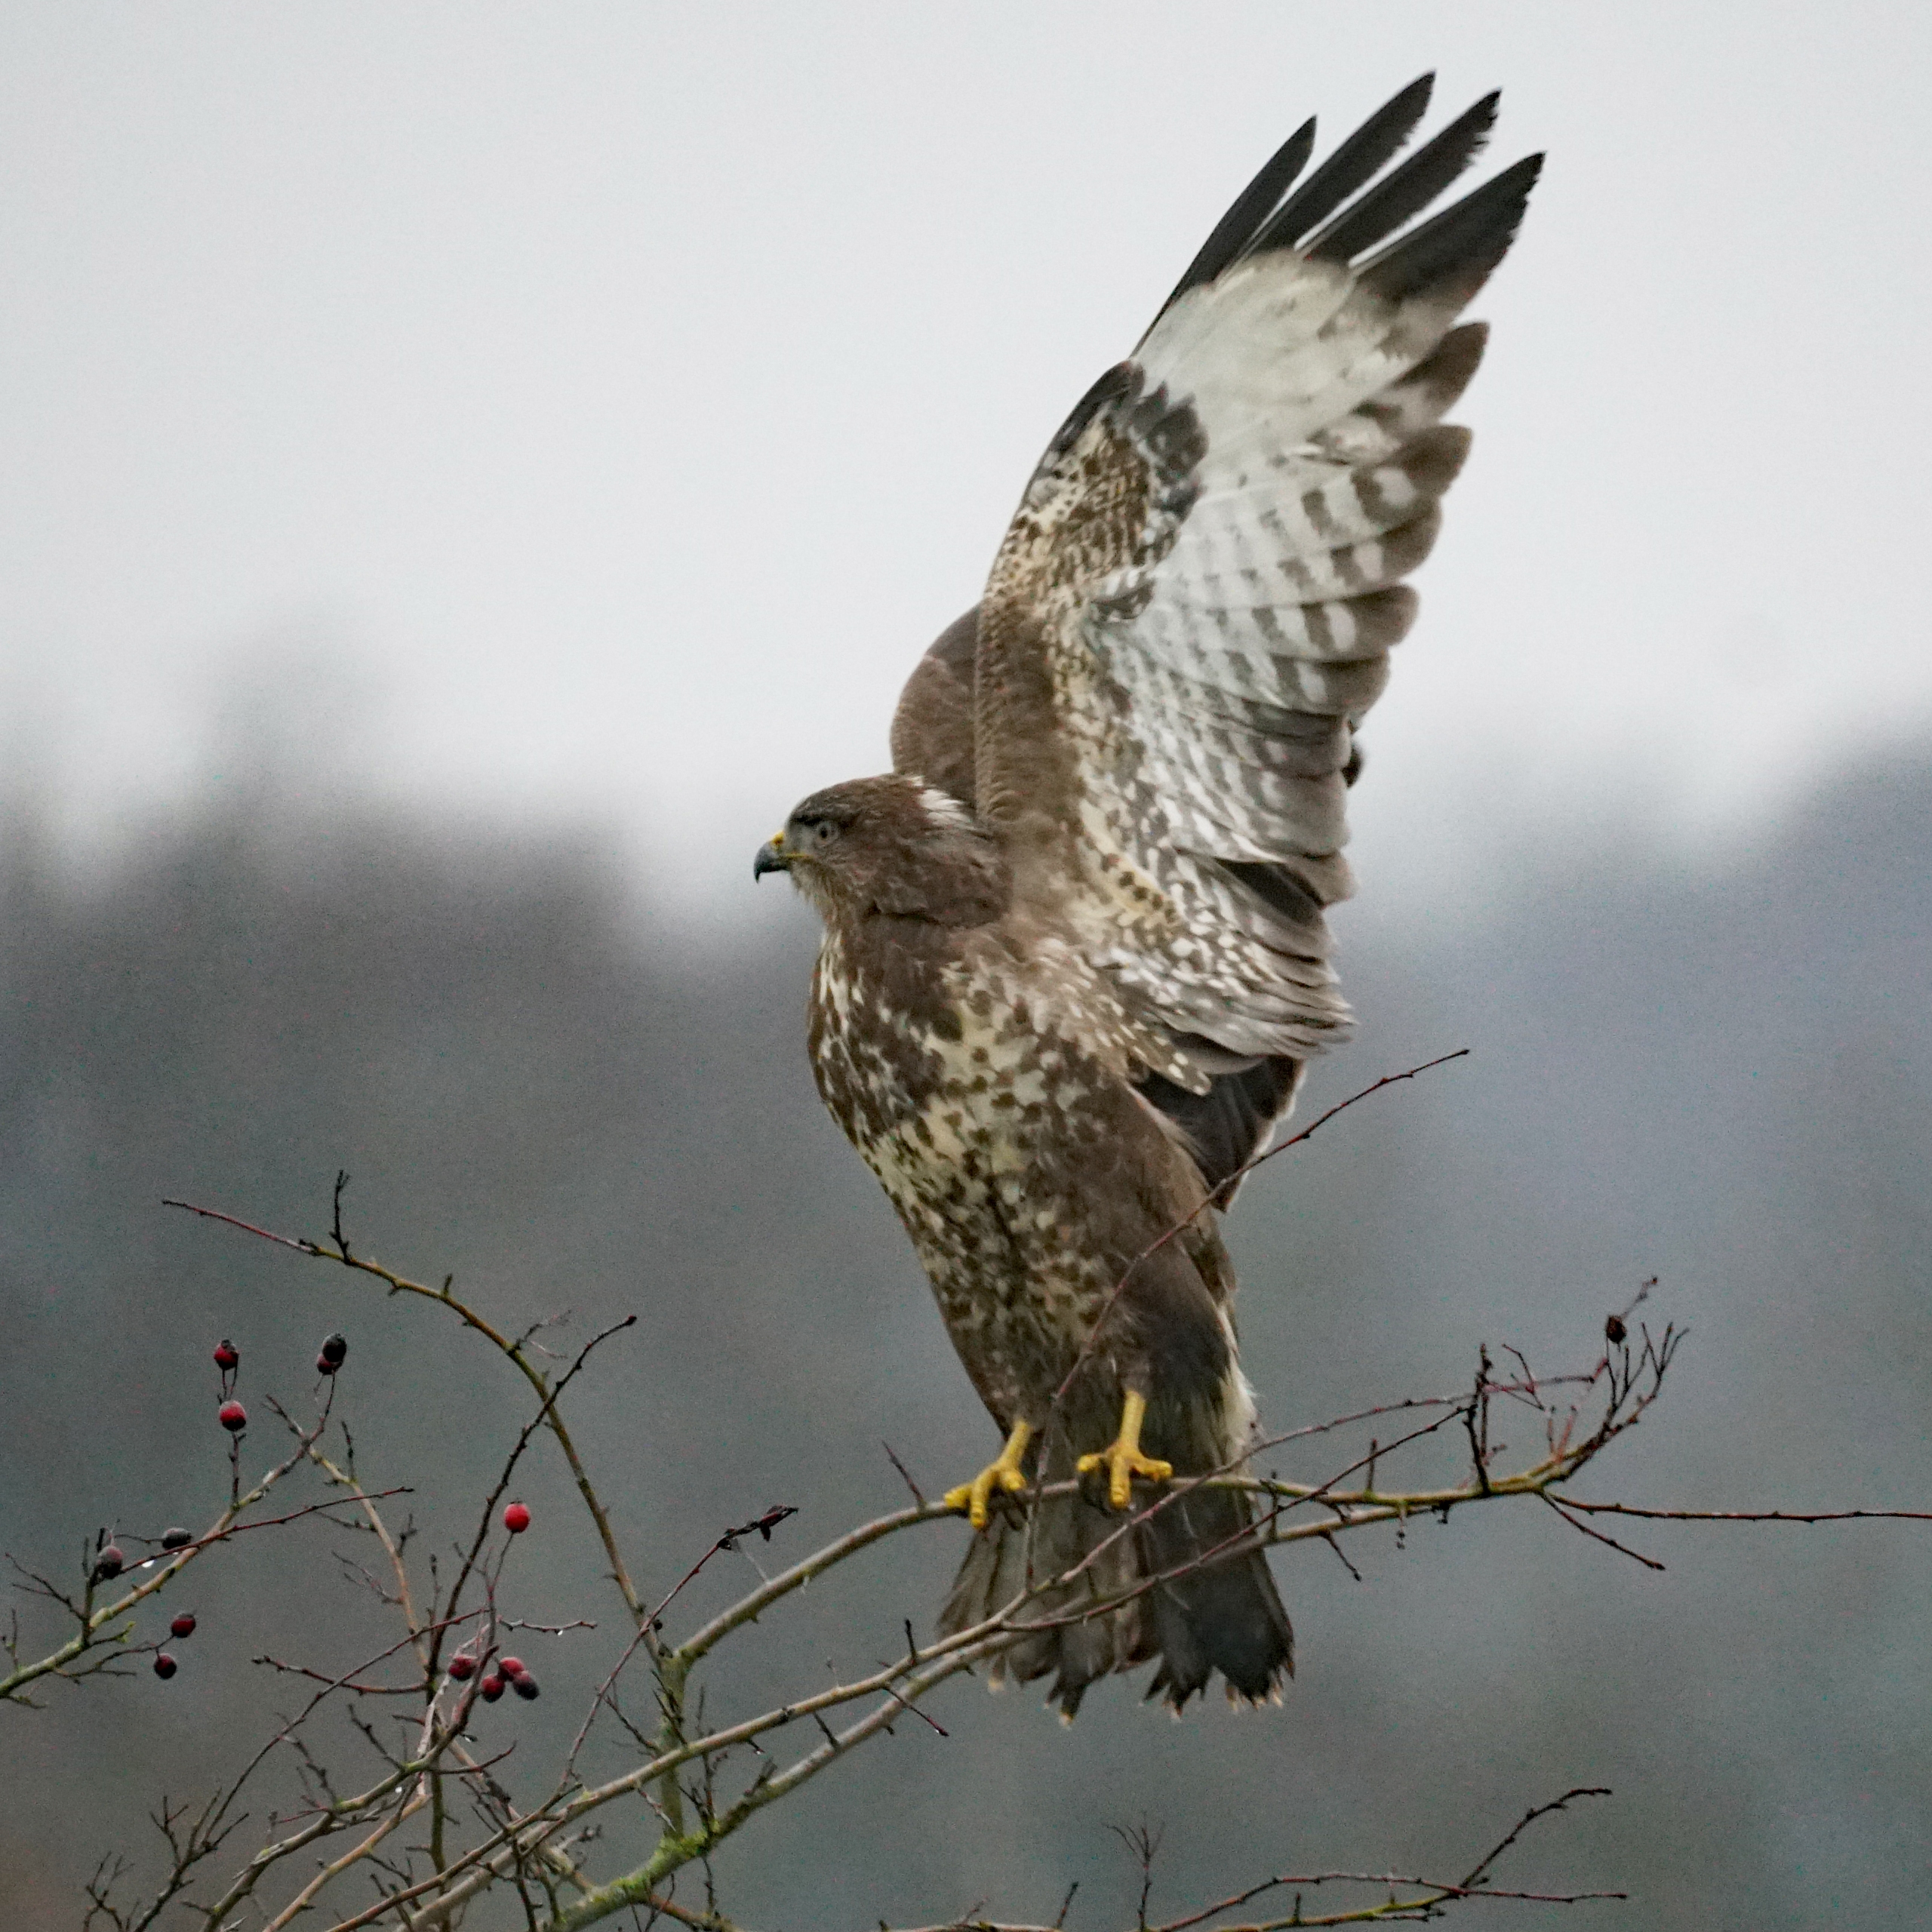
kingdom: Animalia
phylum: Chordata
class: Aves
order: Accipitriformes
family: Accipitridae
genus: Buteo
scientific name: Buteo buteo
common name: Musvåge
